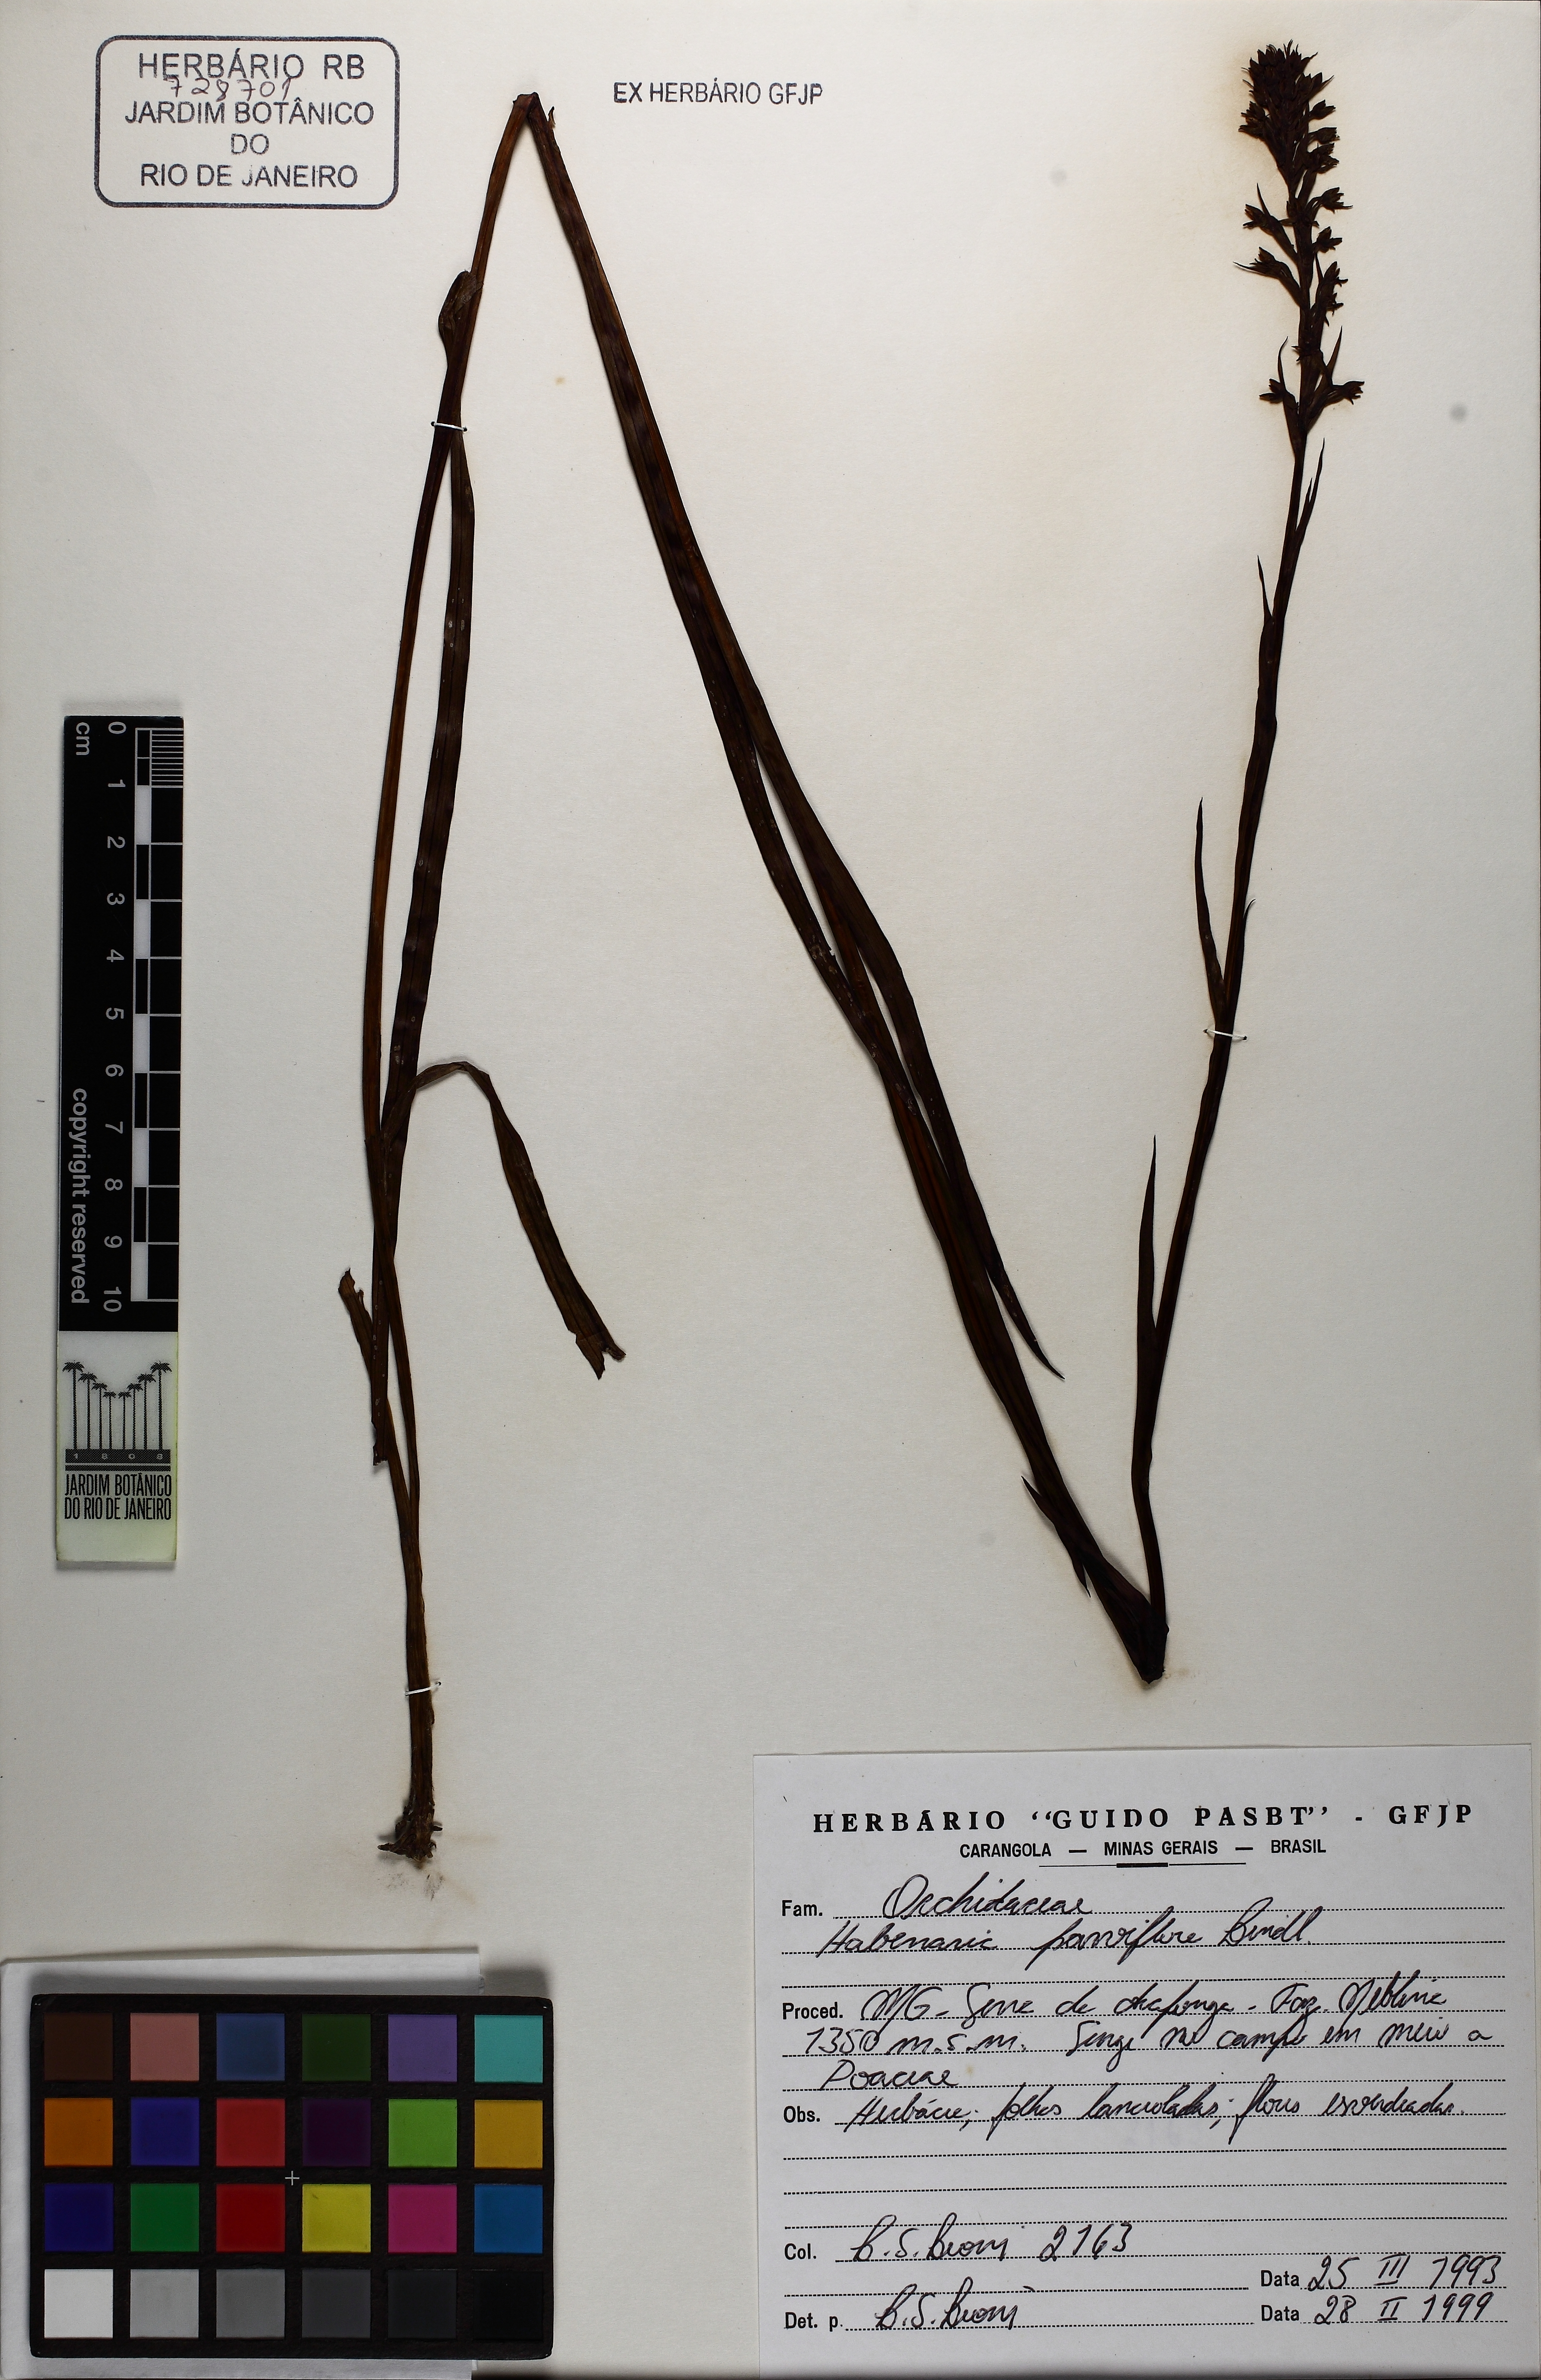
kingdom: Plantae
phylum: Tracheophyta
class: Liliopsida
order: Asparagales
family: Orchidaceae
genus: Habenaria
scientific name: Habenaria parviflora
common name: Small flowered habenaria
